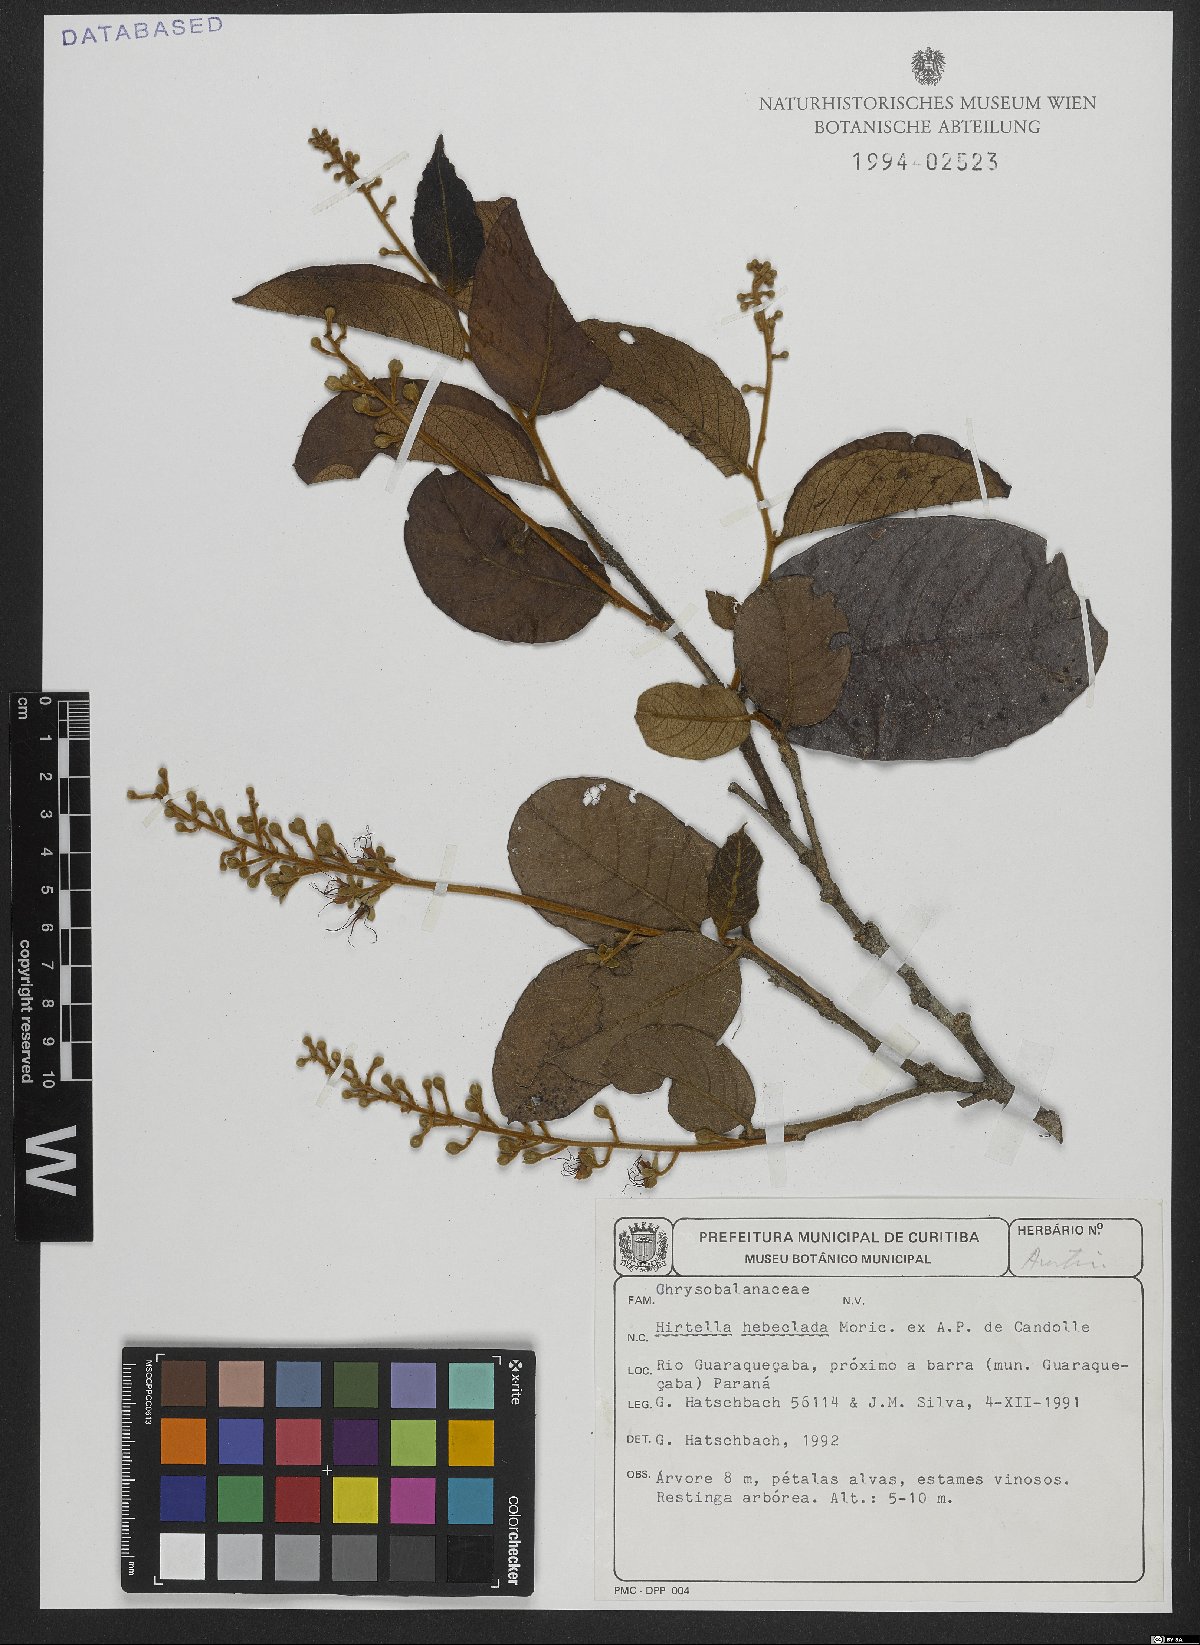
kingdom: Plantae
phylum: Tracheophyta
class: Magnoliopsida
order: Malpighiales
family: Chrysobalanaceae
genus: Hirtella
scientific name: Hirtella hebeclada
